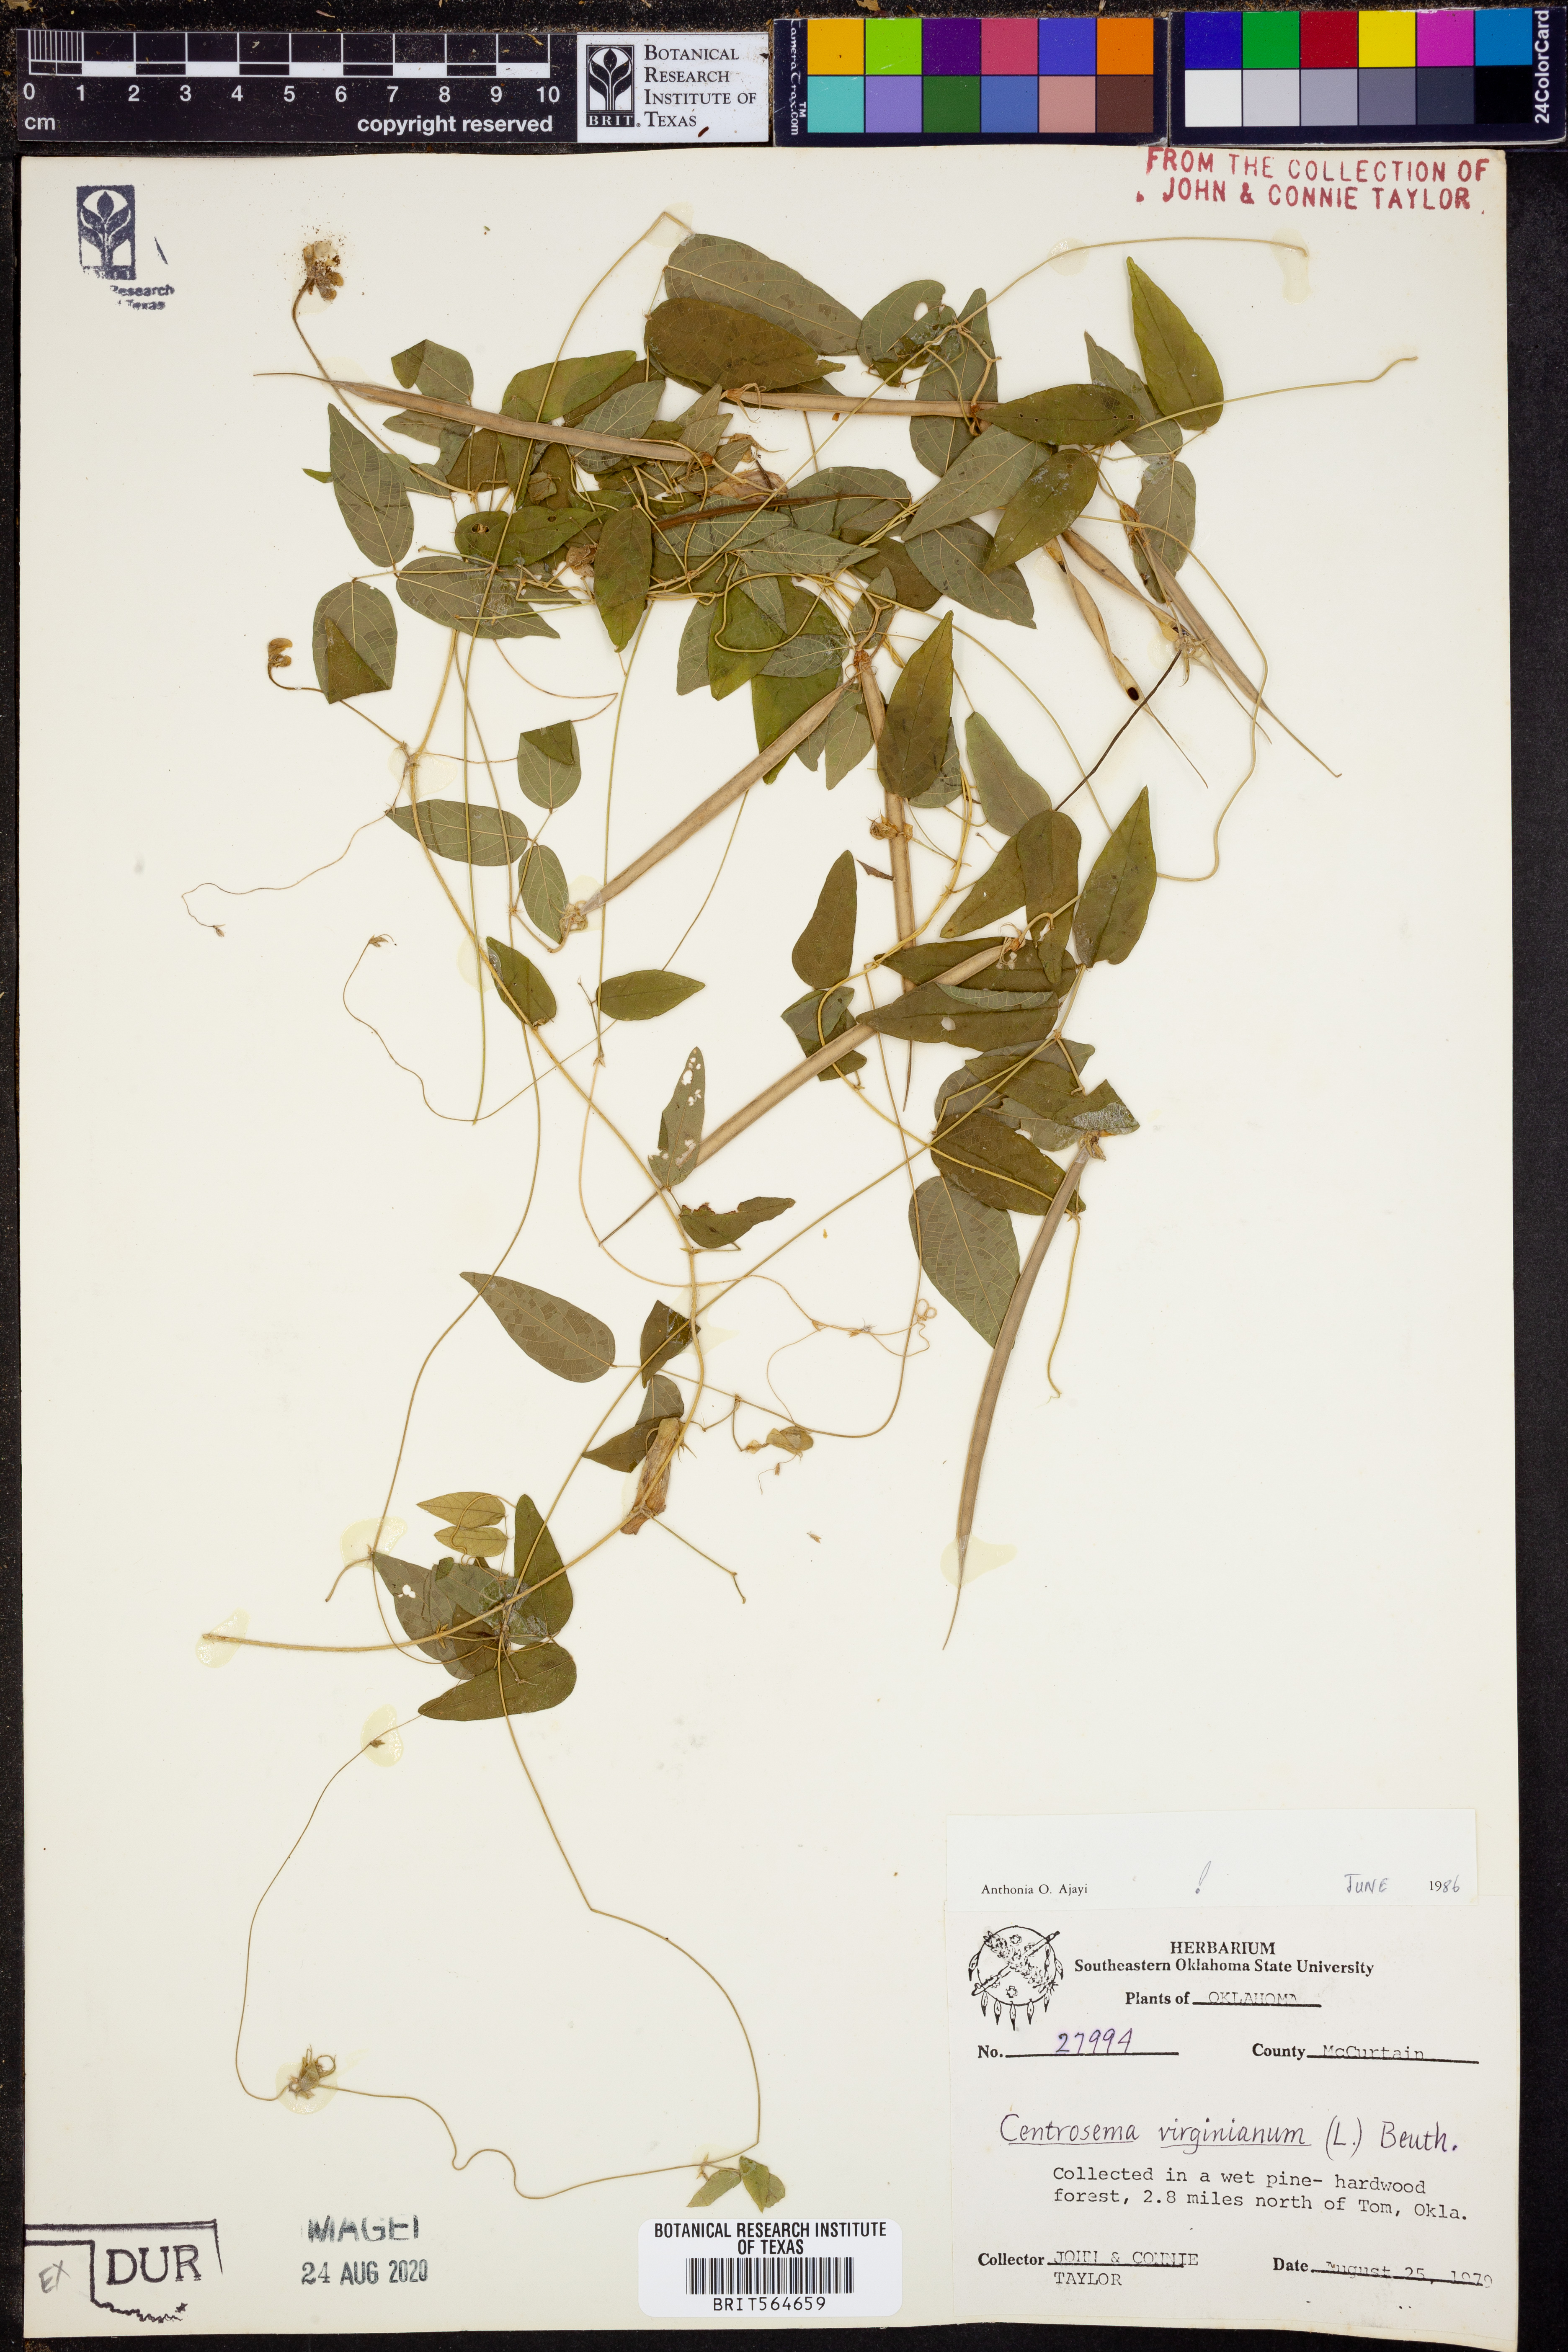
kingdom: Plantae
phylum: Tracheophyta
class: Magnoliopsida
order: Fabales
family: Fabaceae
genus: Centrosema
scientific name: Centrosema virginianum
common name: Butterfly-pea
